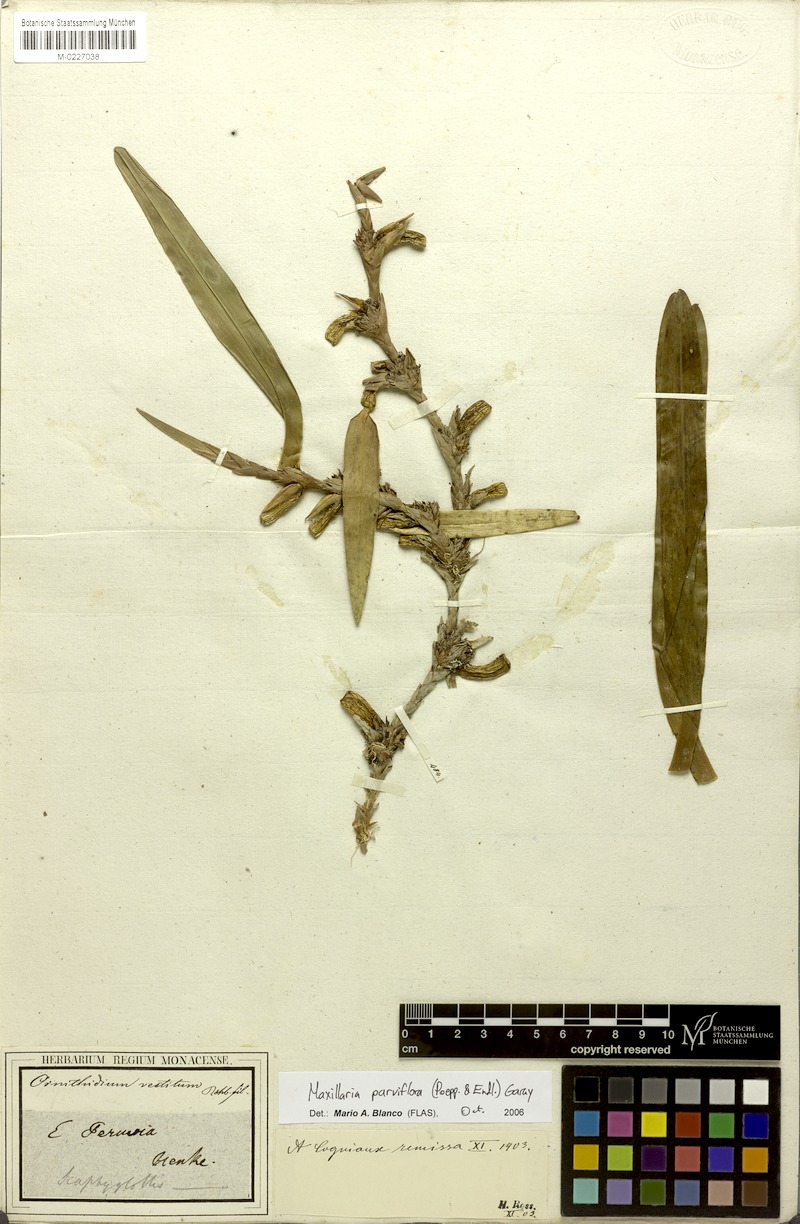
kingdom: Plantae
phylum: Tracheophyta
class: Liliopsida
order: Asparagales
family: Orchidaceae
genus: Maxillaria
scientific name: Maxillaria parviflora
